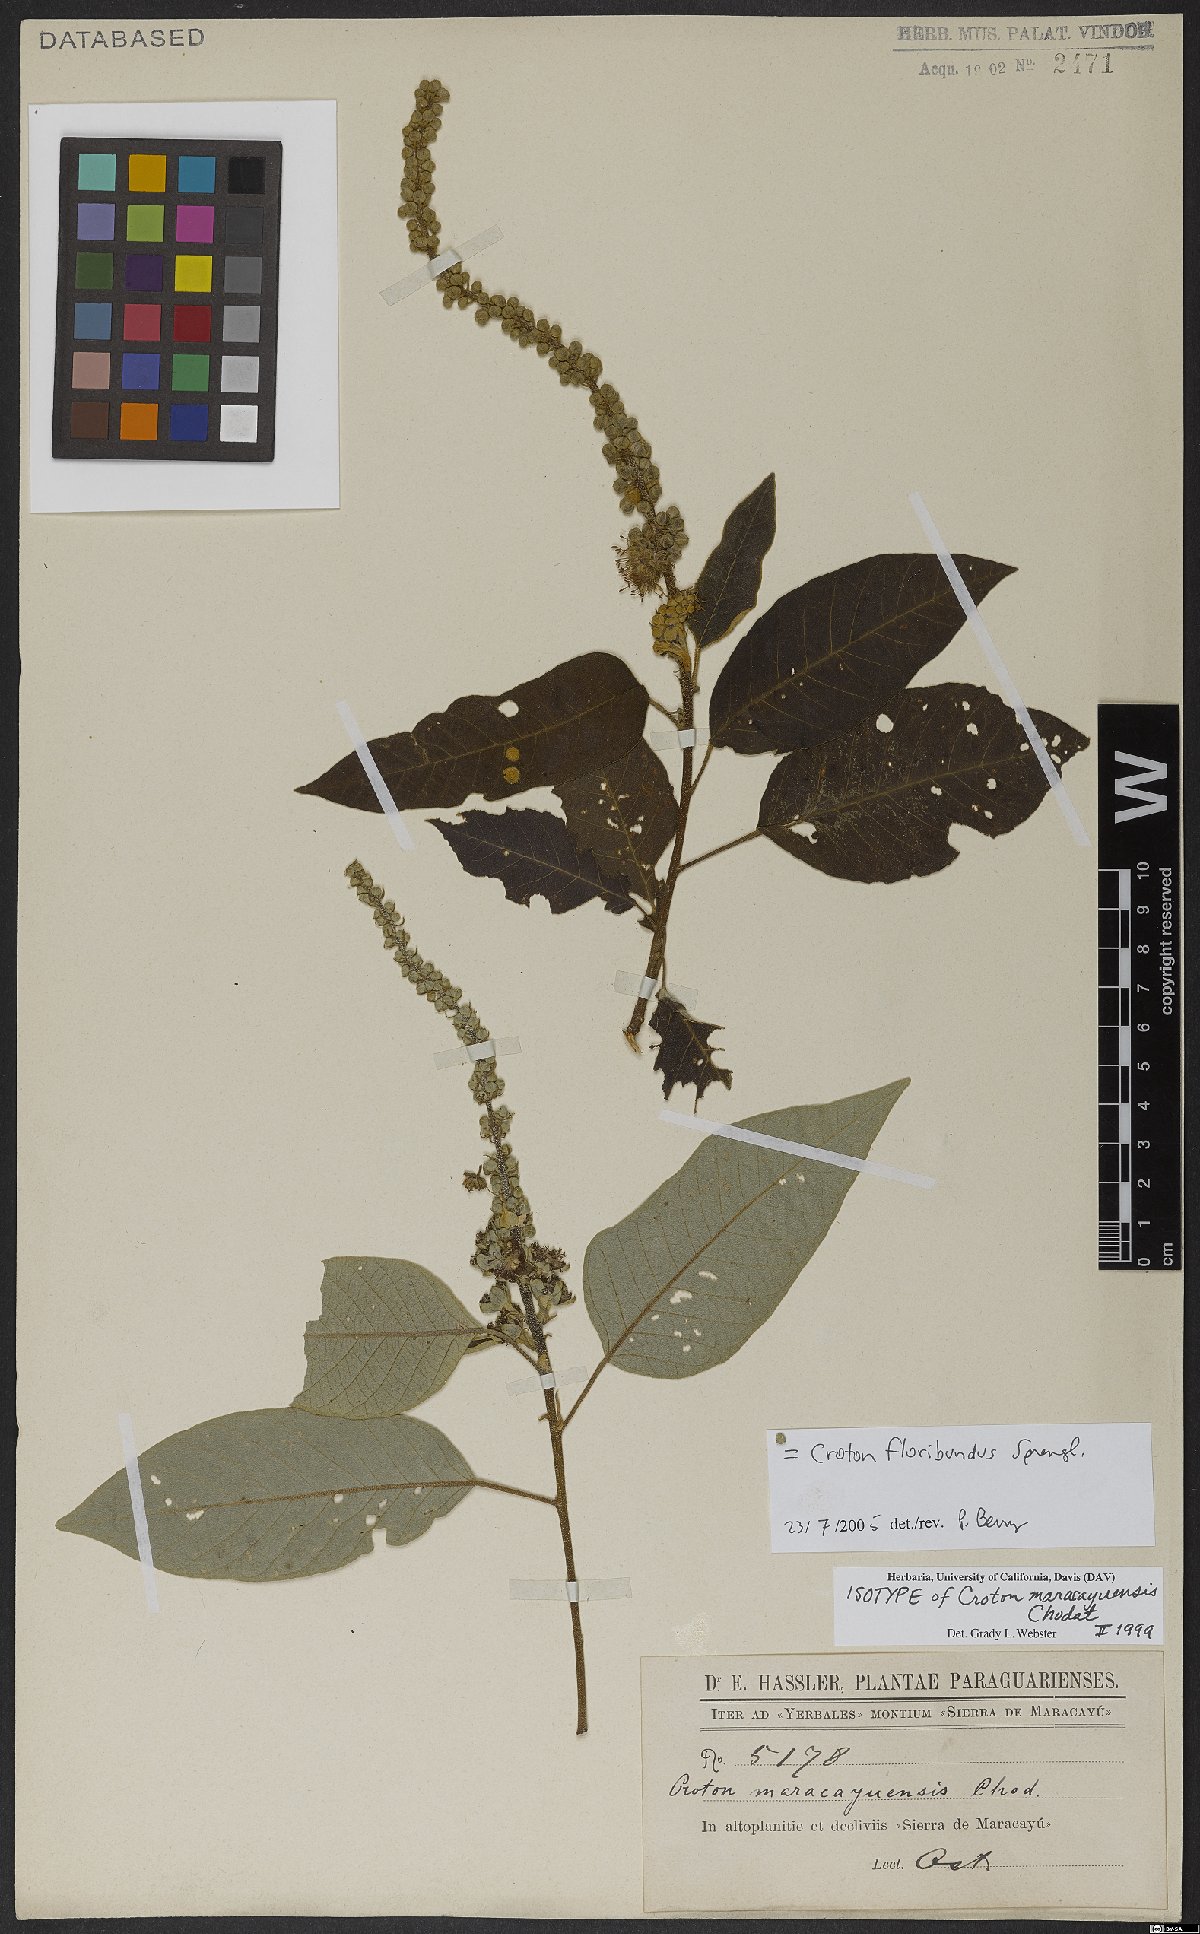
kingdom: Plantae
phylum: Tracheophyta
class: Magnoliopsida
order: Malpighiales
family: Euphorbiaceae
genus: Croton
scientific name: Croton floribundus
